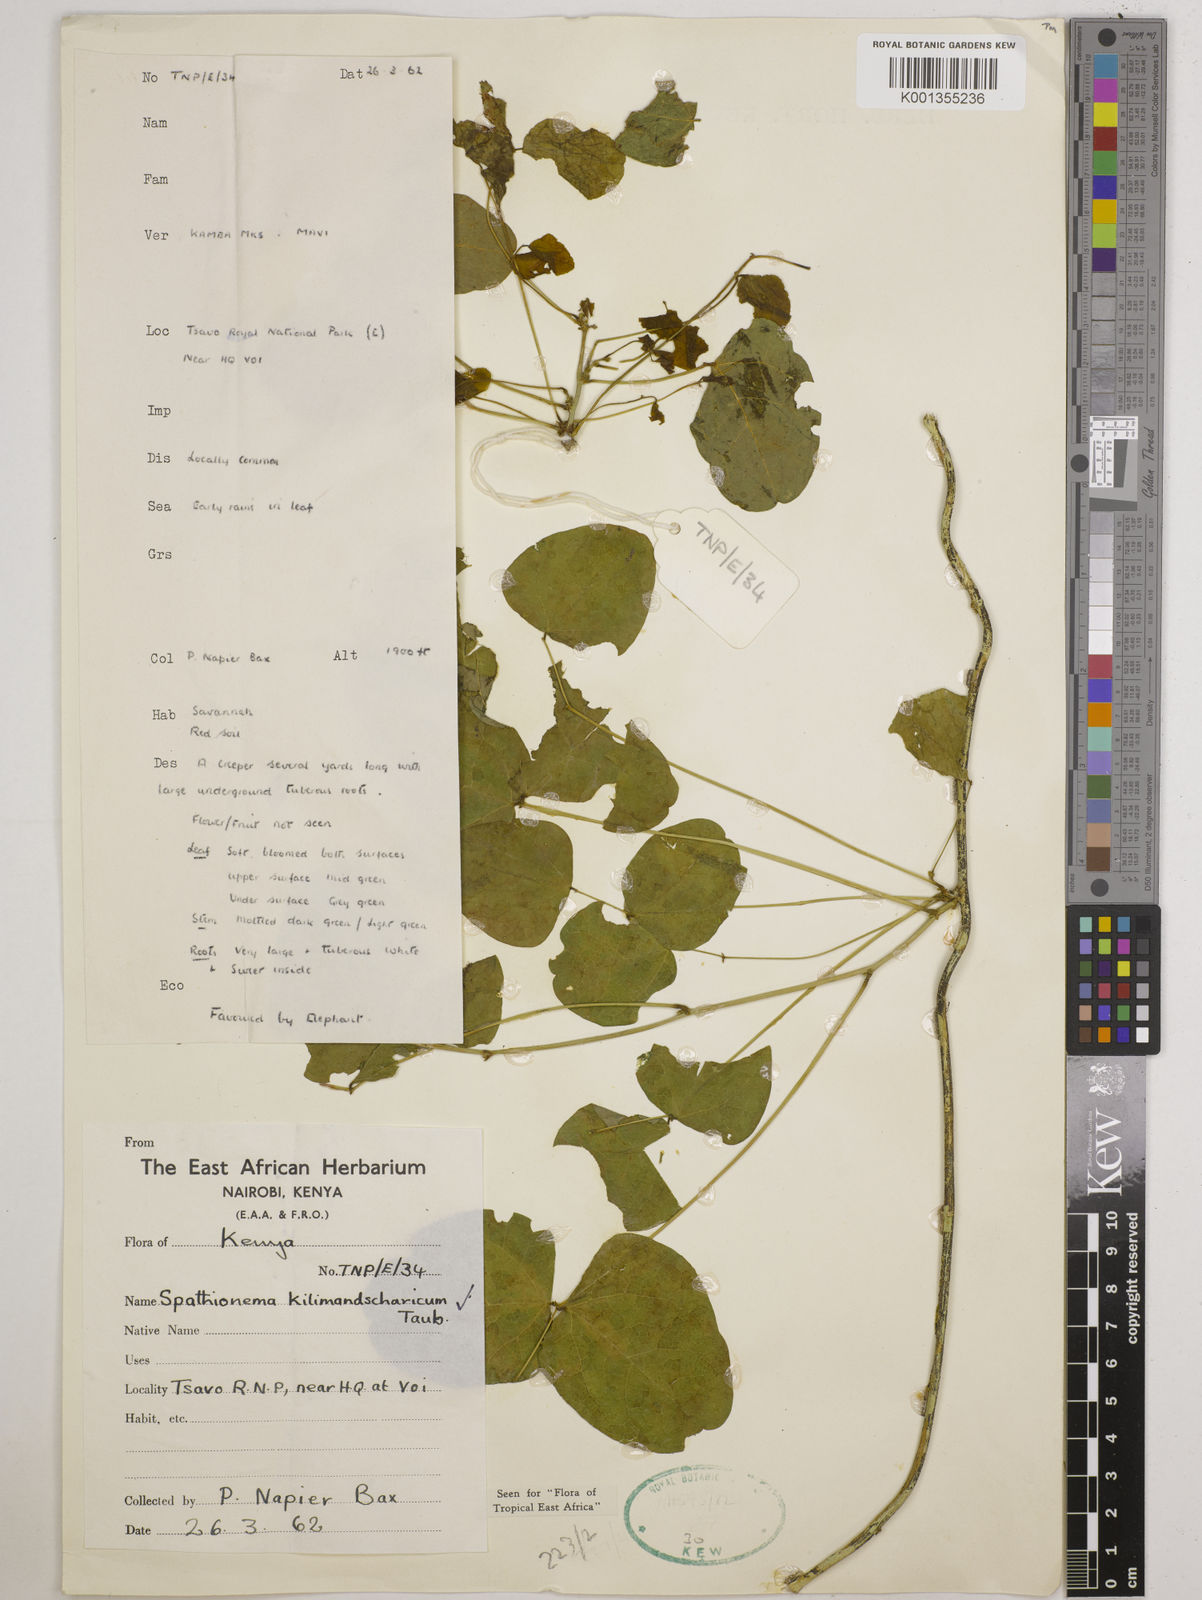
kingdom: Plantae
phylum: Tracheophyta
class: Magnoliopsida
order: Fabales
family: Fabaceae
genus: Spathionema
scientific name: Spathionema kilimandscharicum
